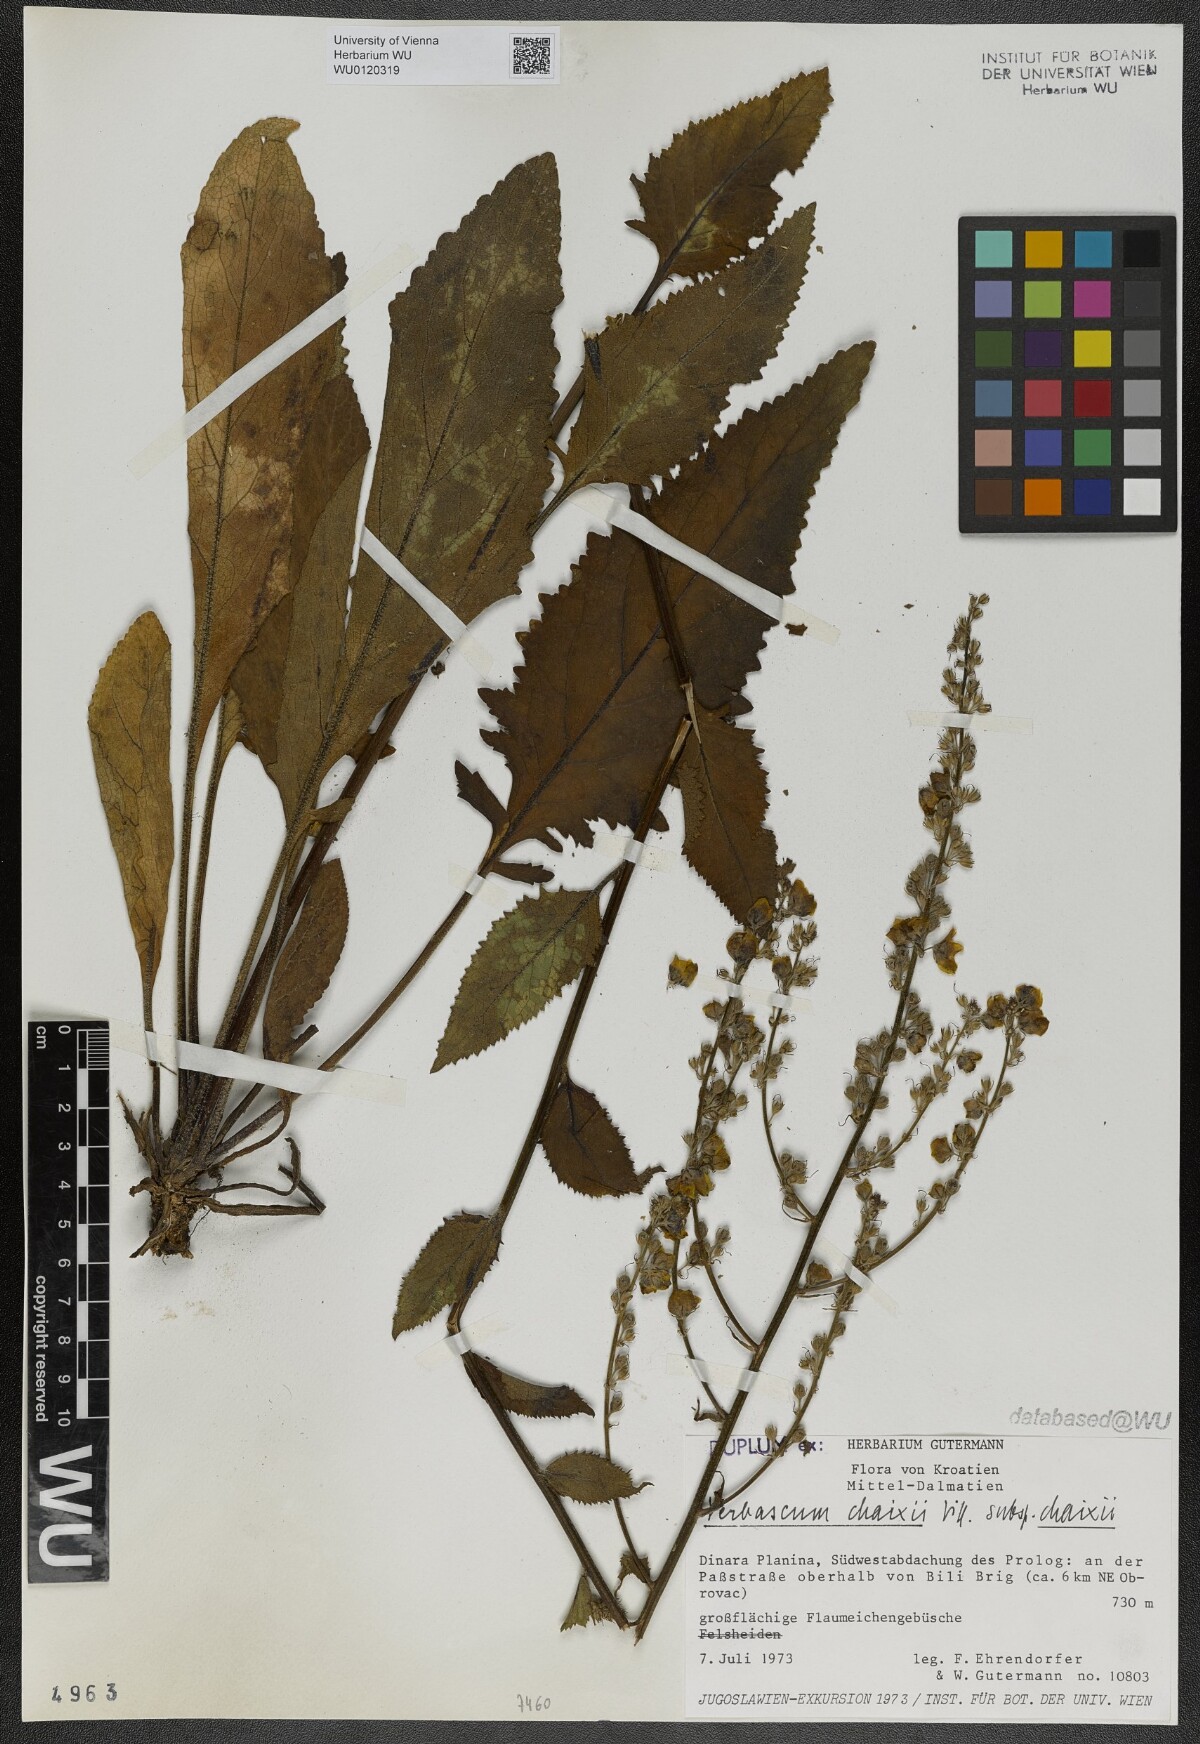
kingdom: Plantae
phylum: Tracheophyta
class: Magnoliopsida
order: Lamiales
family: Scrophulariaceae
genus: Verbascum
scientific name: Verbascum chaixii
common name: Nettle-leaved mullein
